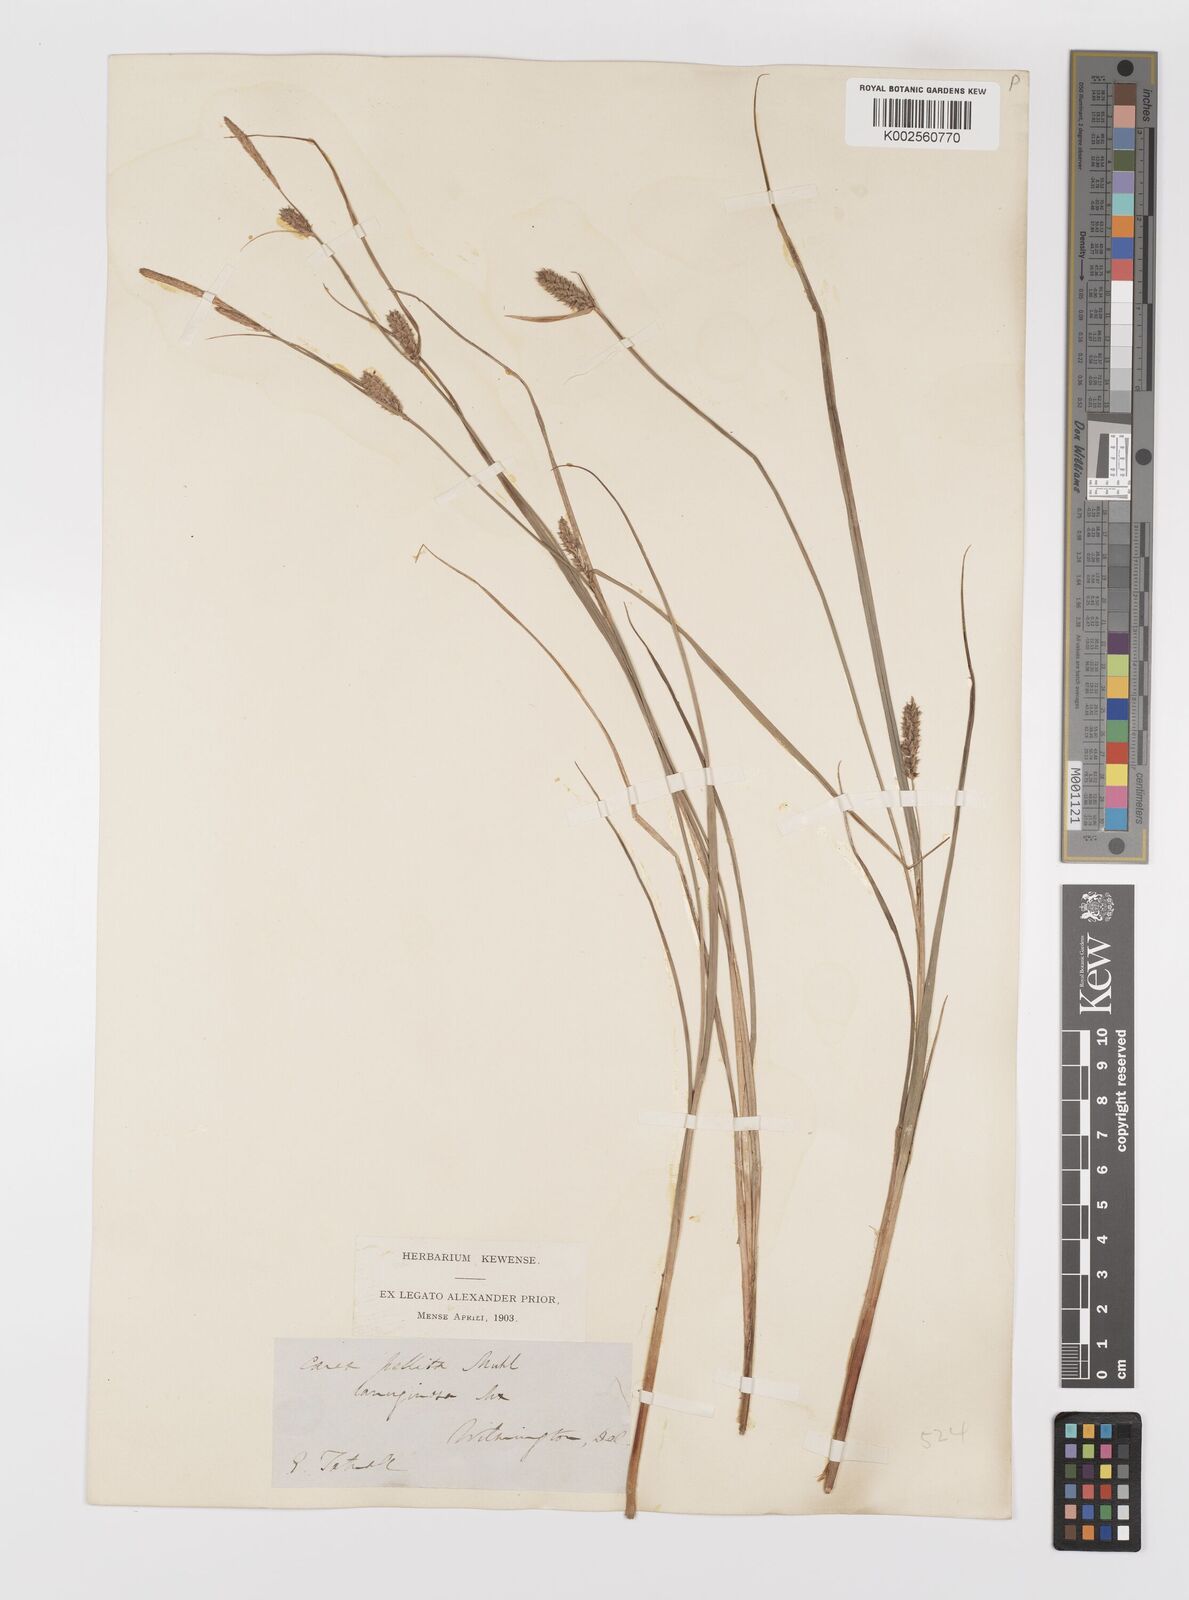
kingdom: Plantae
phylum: Tracheophyta
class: Liliopsida
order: Poales
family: Cyperaceae
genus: Carex
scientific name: Carex lasiocarpa
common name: Slender sedge
